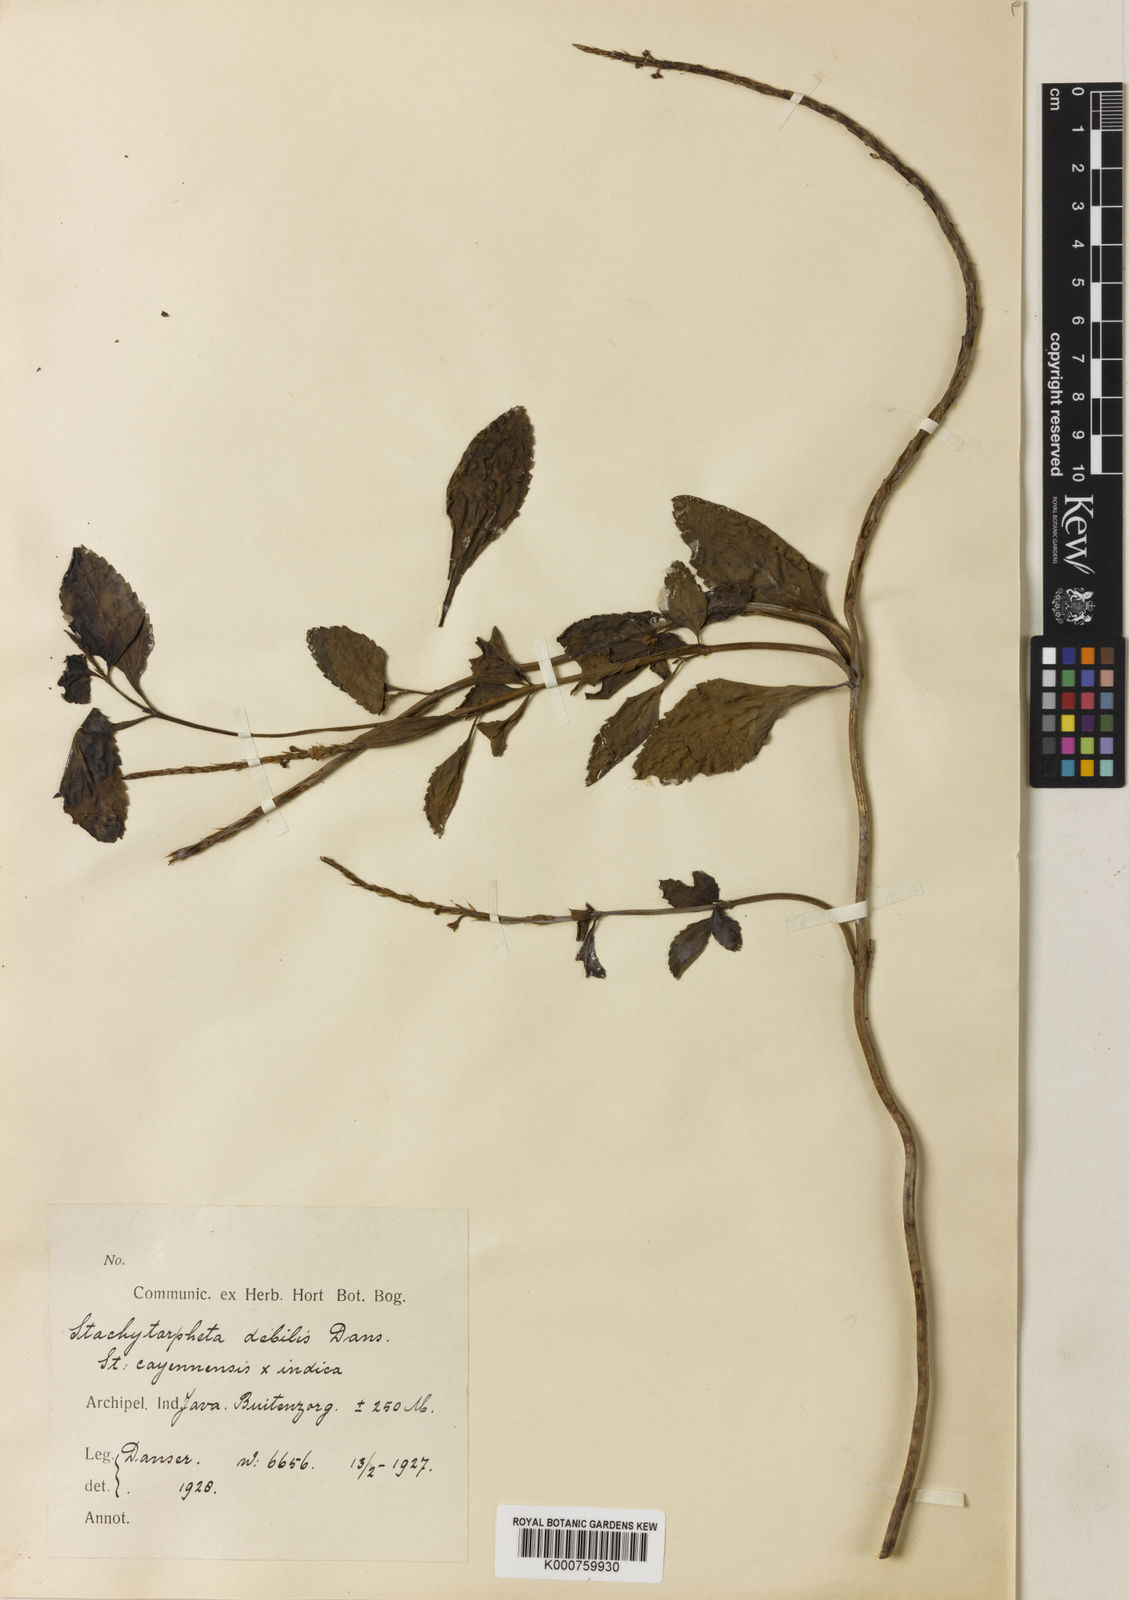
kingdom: Plantae
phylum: Tracheophyta
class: Magnoliopsida
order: Lamiales
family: Verbenaceae
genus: Stachytarpheta
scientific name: Stachytarpheta debilis
